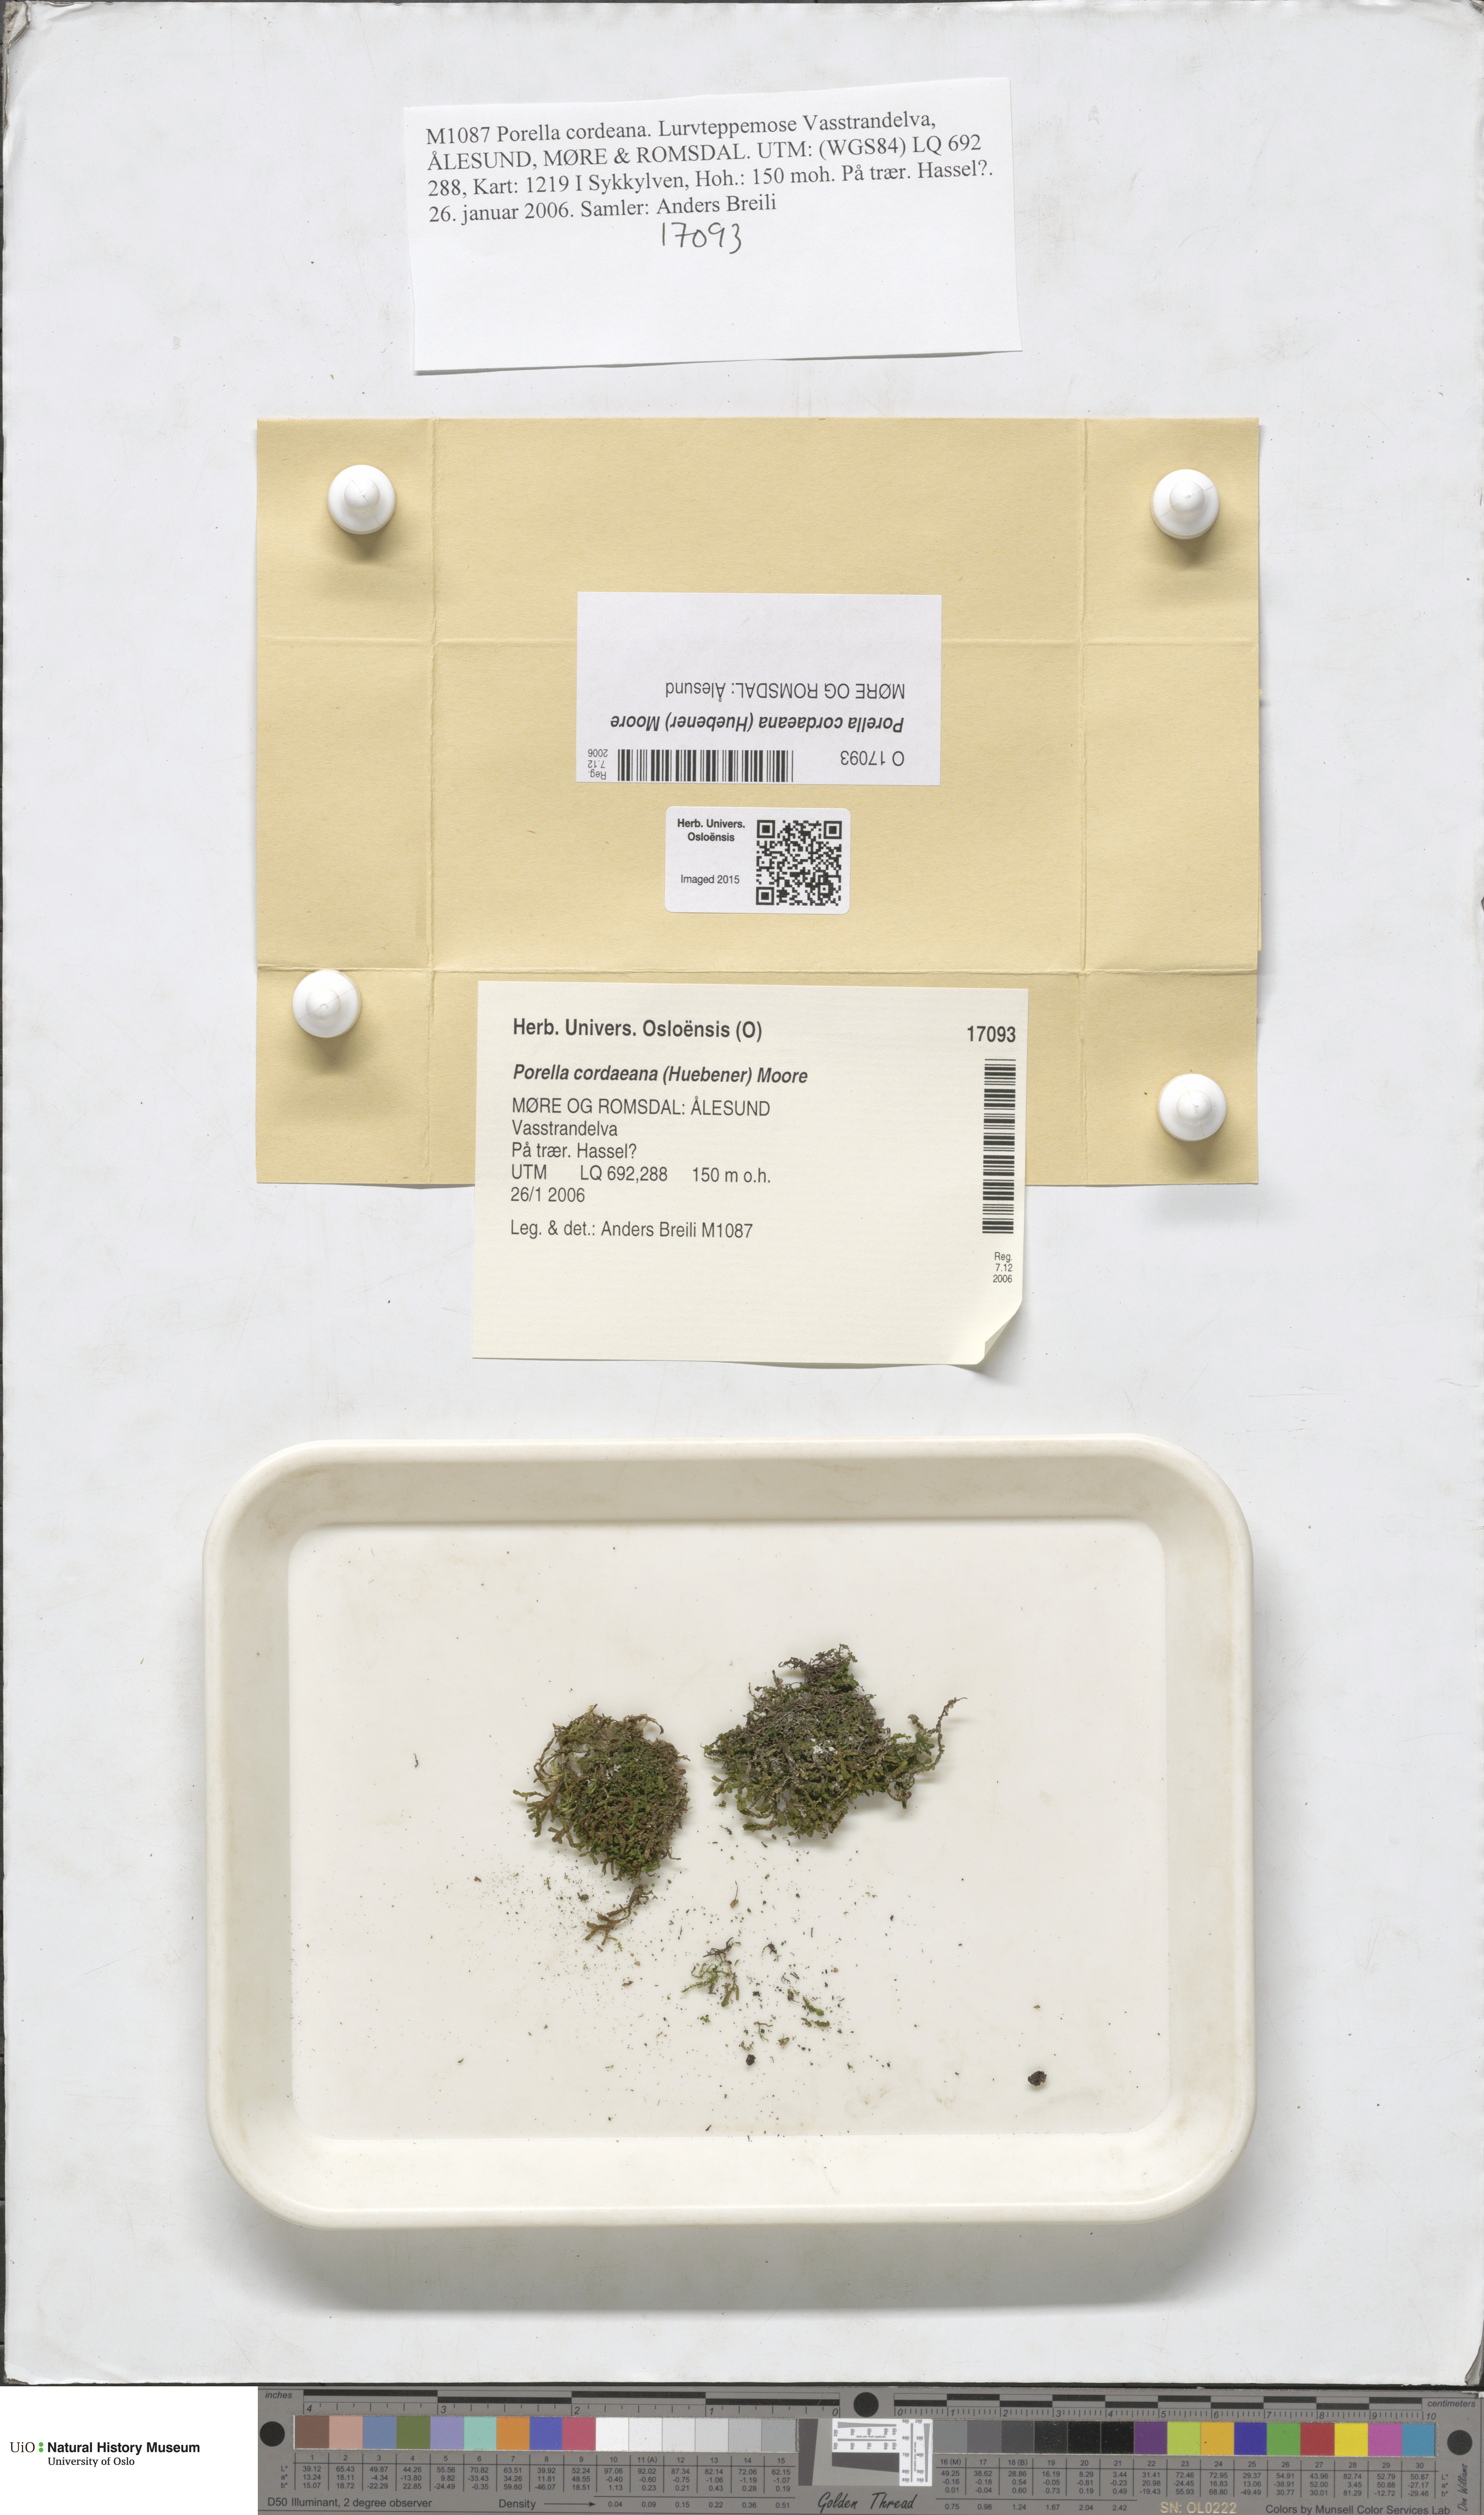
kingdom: Plantae
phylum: Marchantiophyta
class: Jungermanniopsida
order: Porellales
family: Porellaceae
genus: Porella
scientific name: Porella cordaeana
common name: Cliff scalewort
